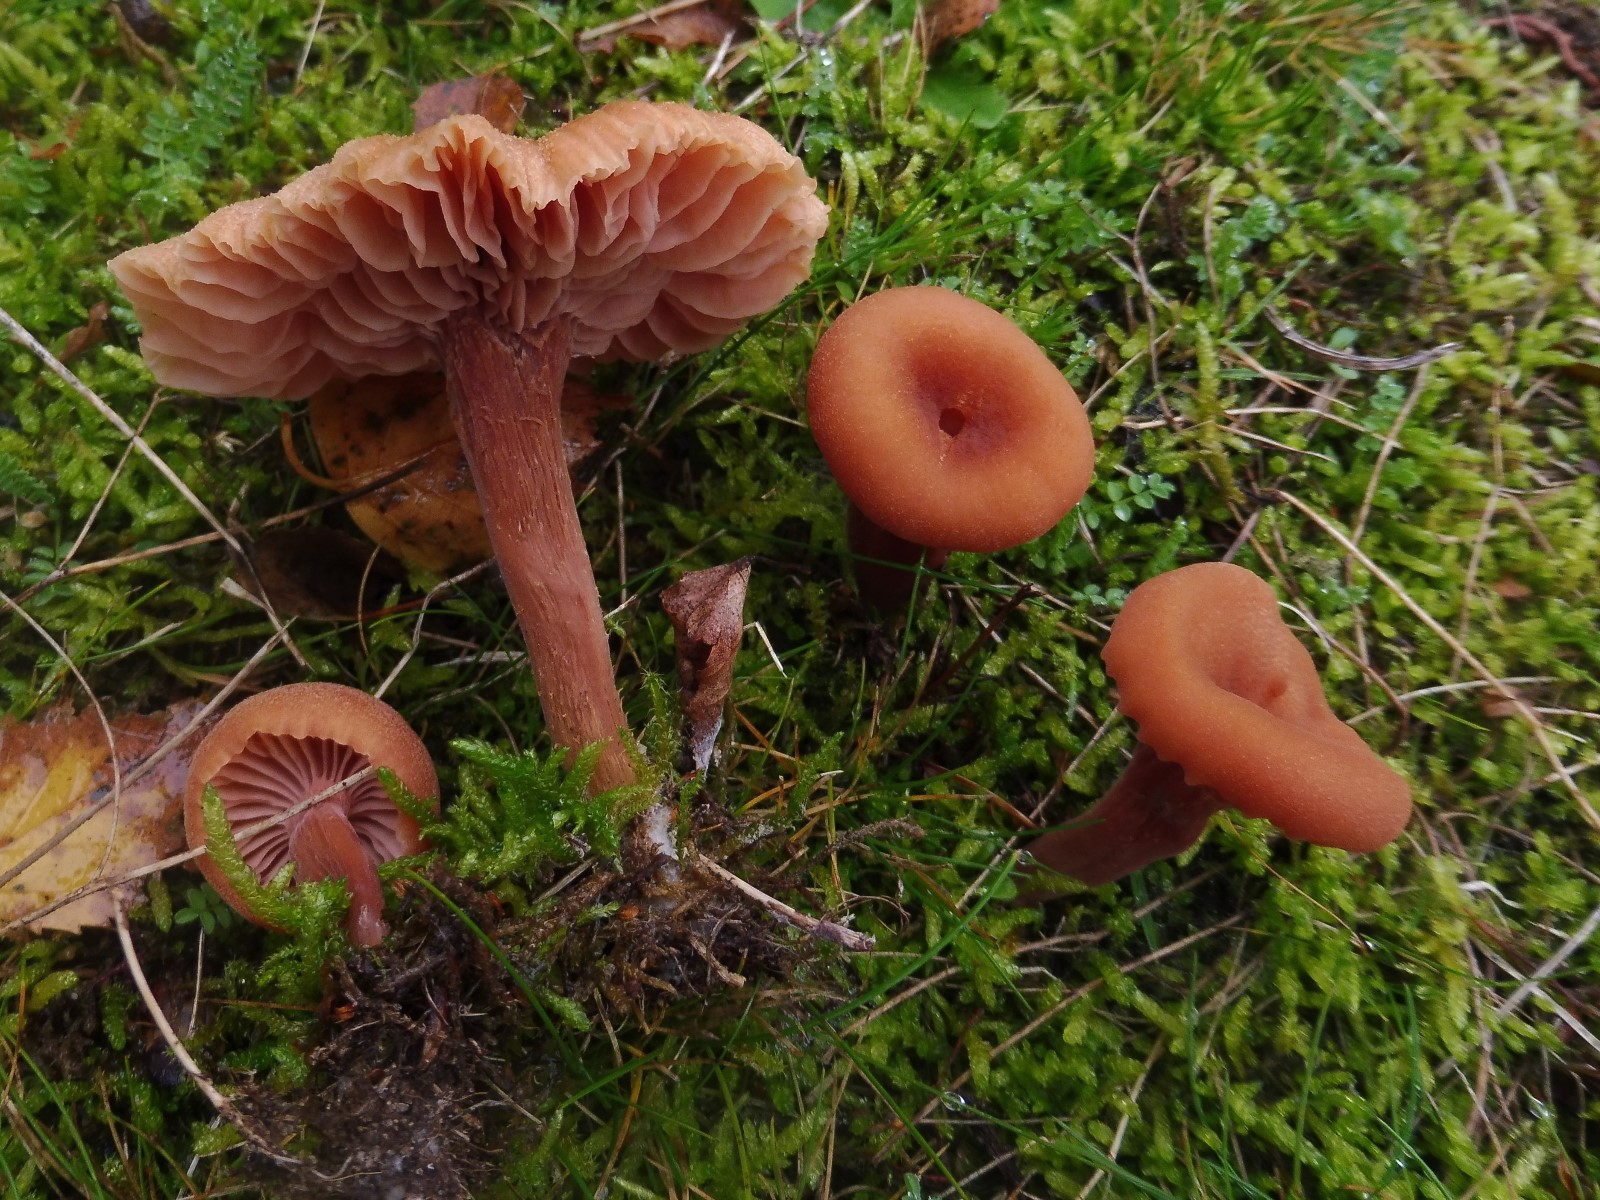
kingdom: Fungi
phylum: Basidiomycota
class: Agaricomycetes
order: Agaricales
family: Hydnangiaceae
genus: Laccaria
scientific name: Laccaria laccata
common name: rød ametysthat
